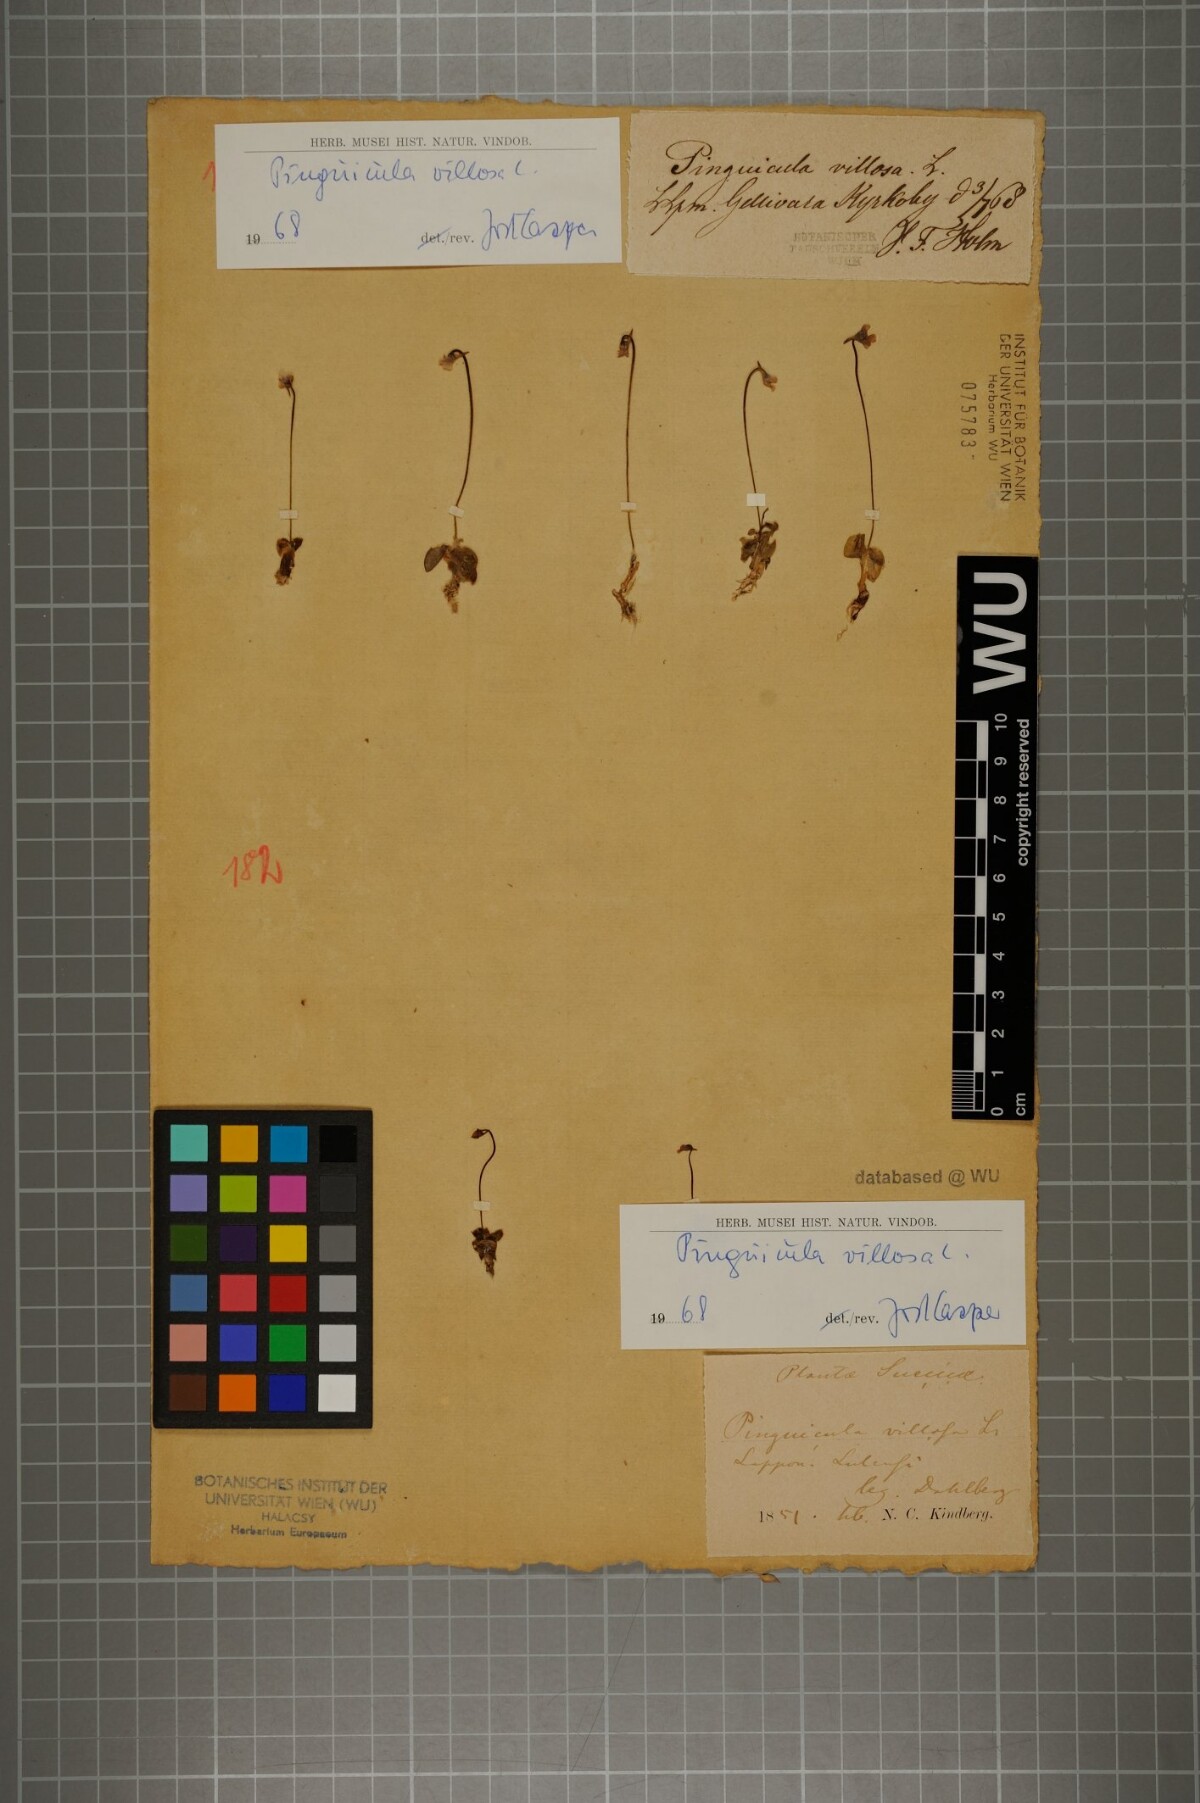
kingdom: Plantae
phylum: Tracheophyta
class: Magnoliopsida
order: Lamiales
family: Lentibulariaceae
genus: Pinguicula
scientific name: Pinguicula villosa
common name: Hairy butterwort
